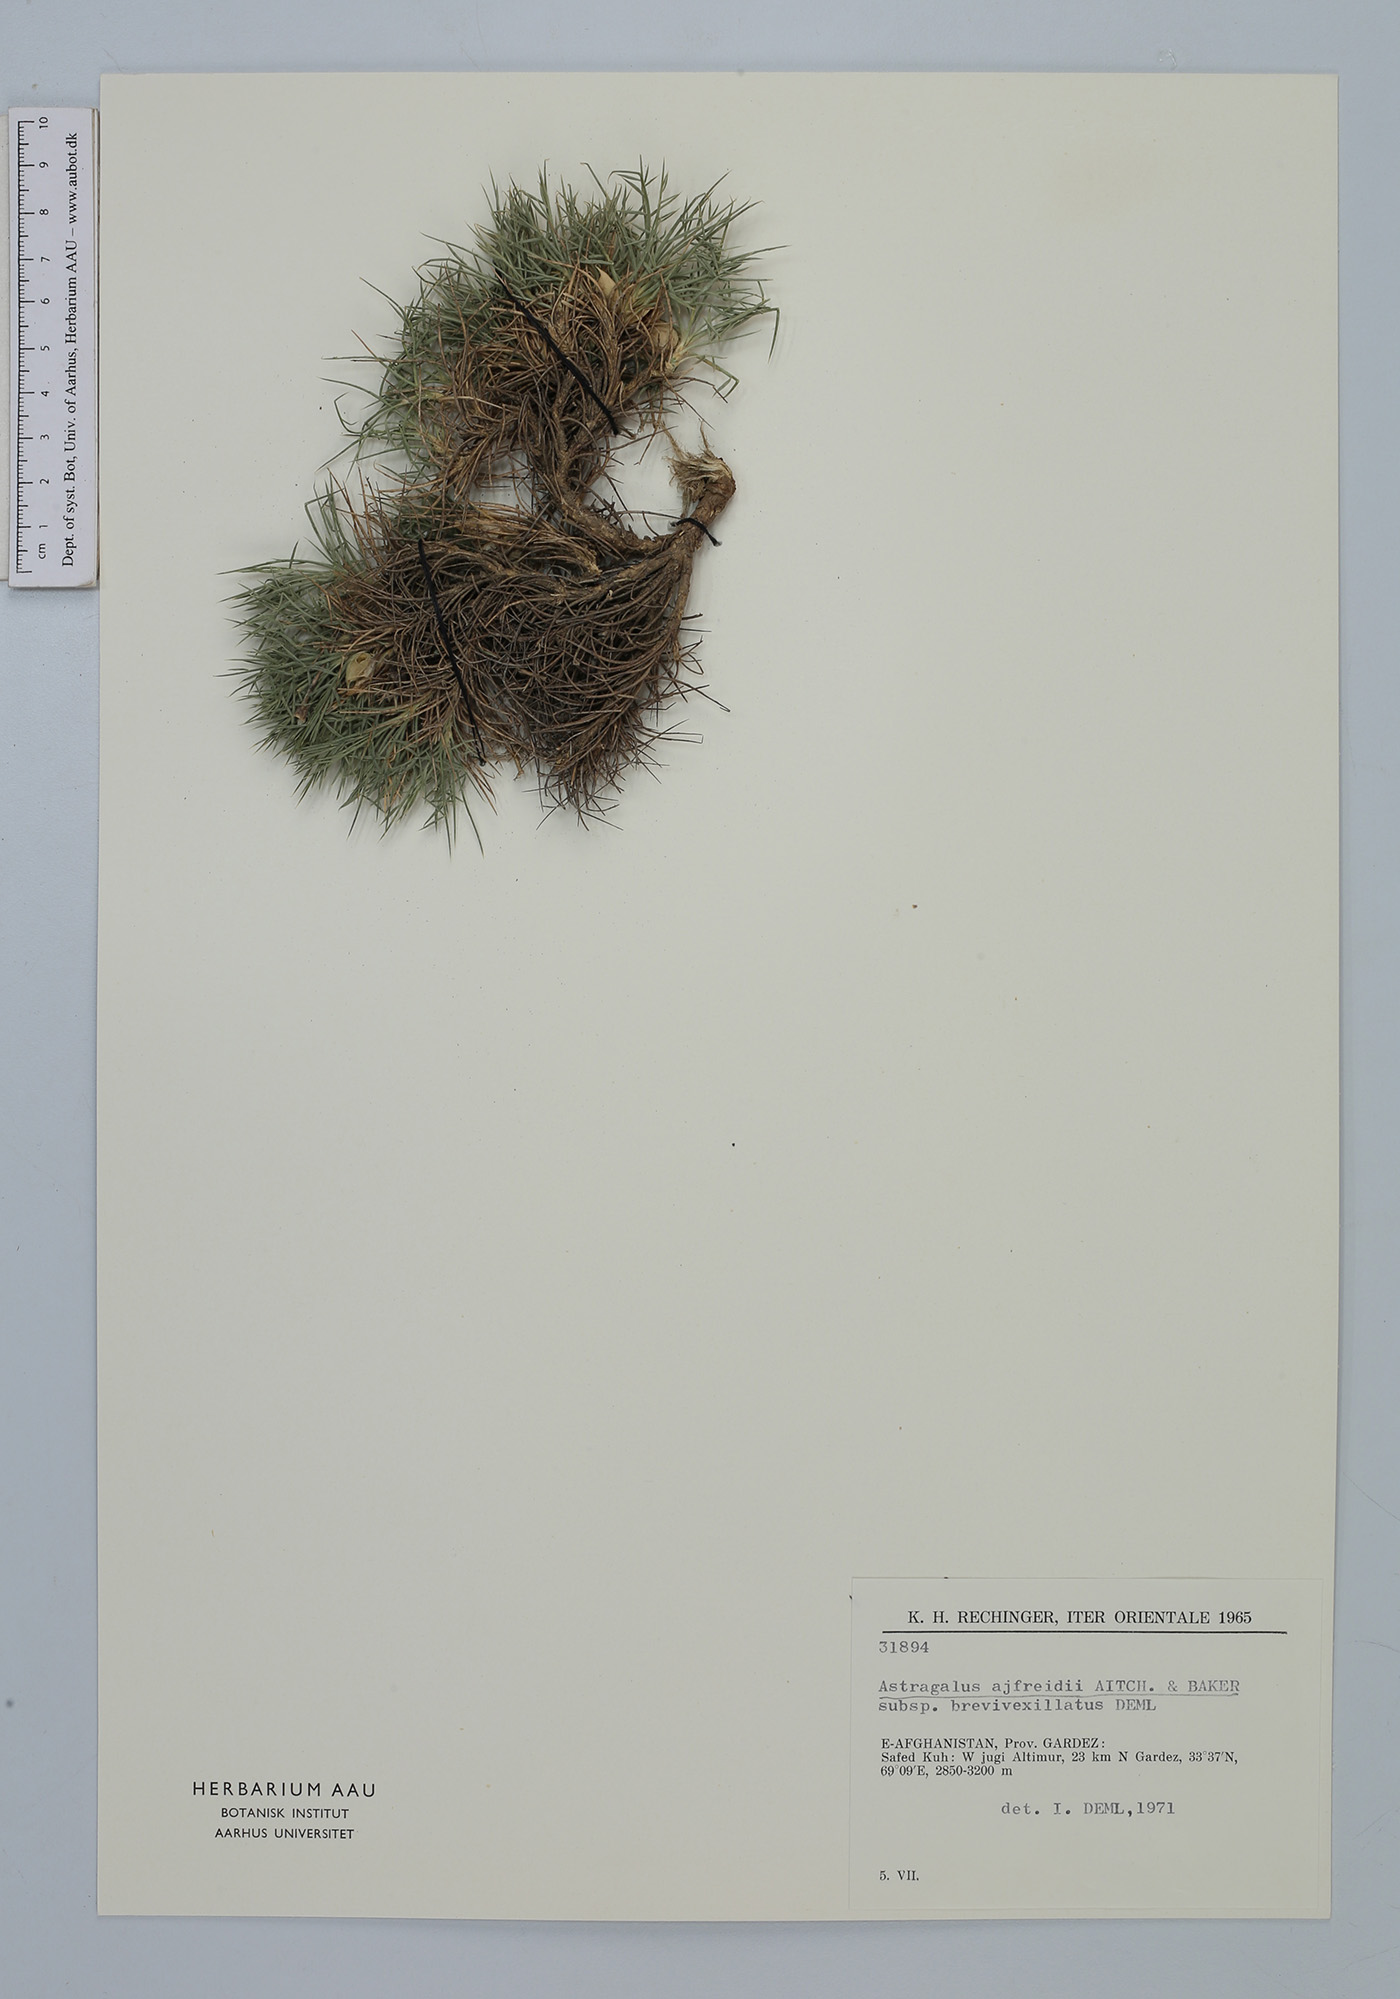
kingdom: Plantae
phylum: Tracheophyta
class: Magnoliopsida
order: Fabales
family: Fabaceae
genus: Astragalus
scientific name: Astragalus ajfreidii
